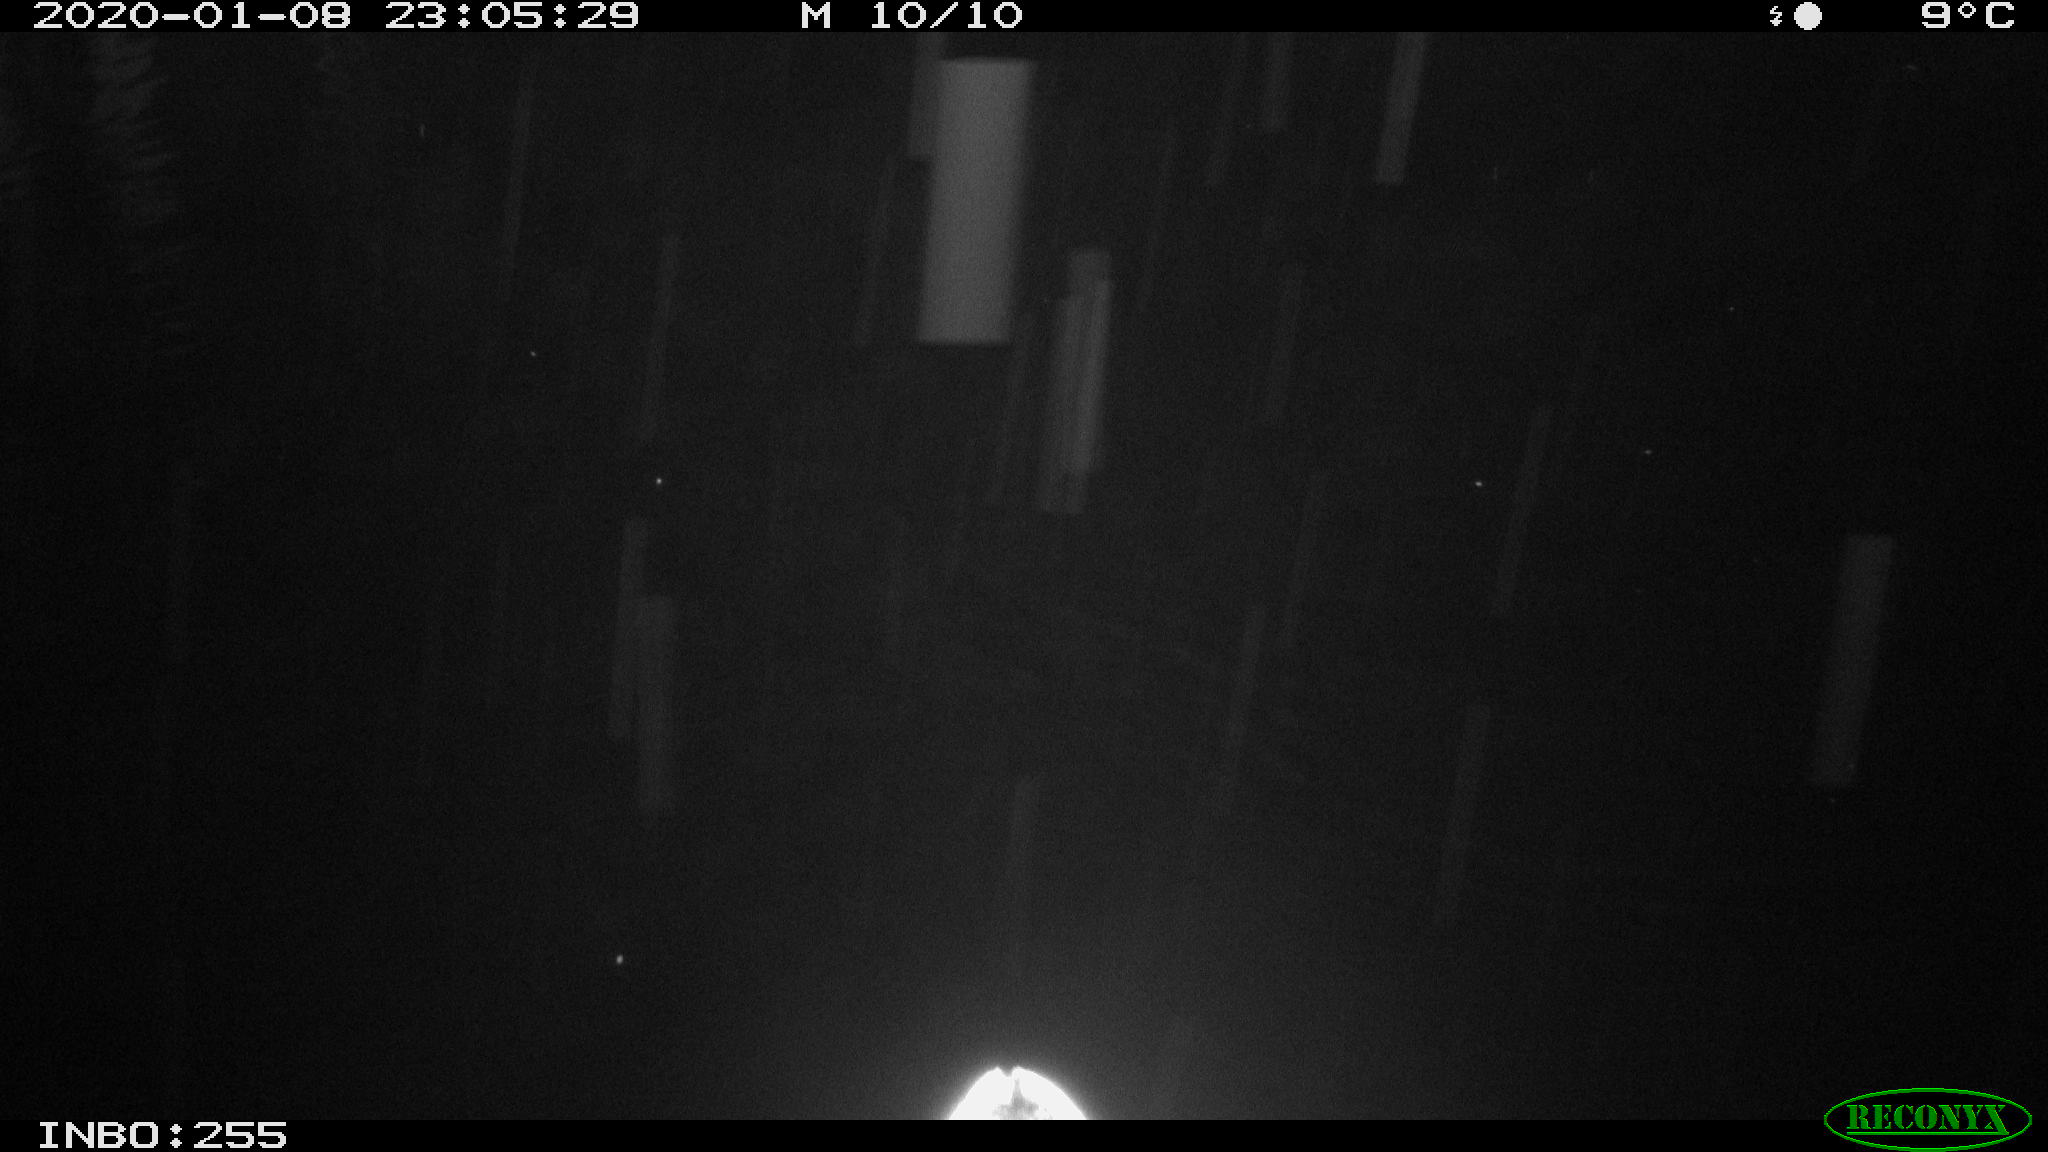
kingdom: Animalia
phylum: Chordata
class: Aves
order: Anseriformes
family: Anatidae
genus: Anas
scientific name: Anas platyrhynchos
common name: Mallard
